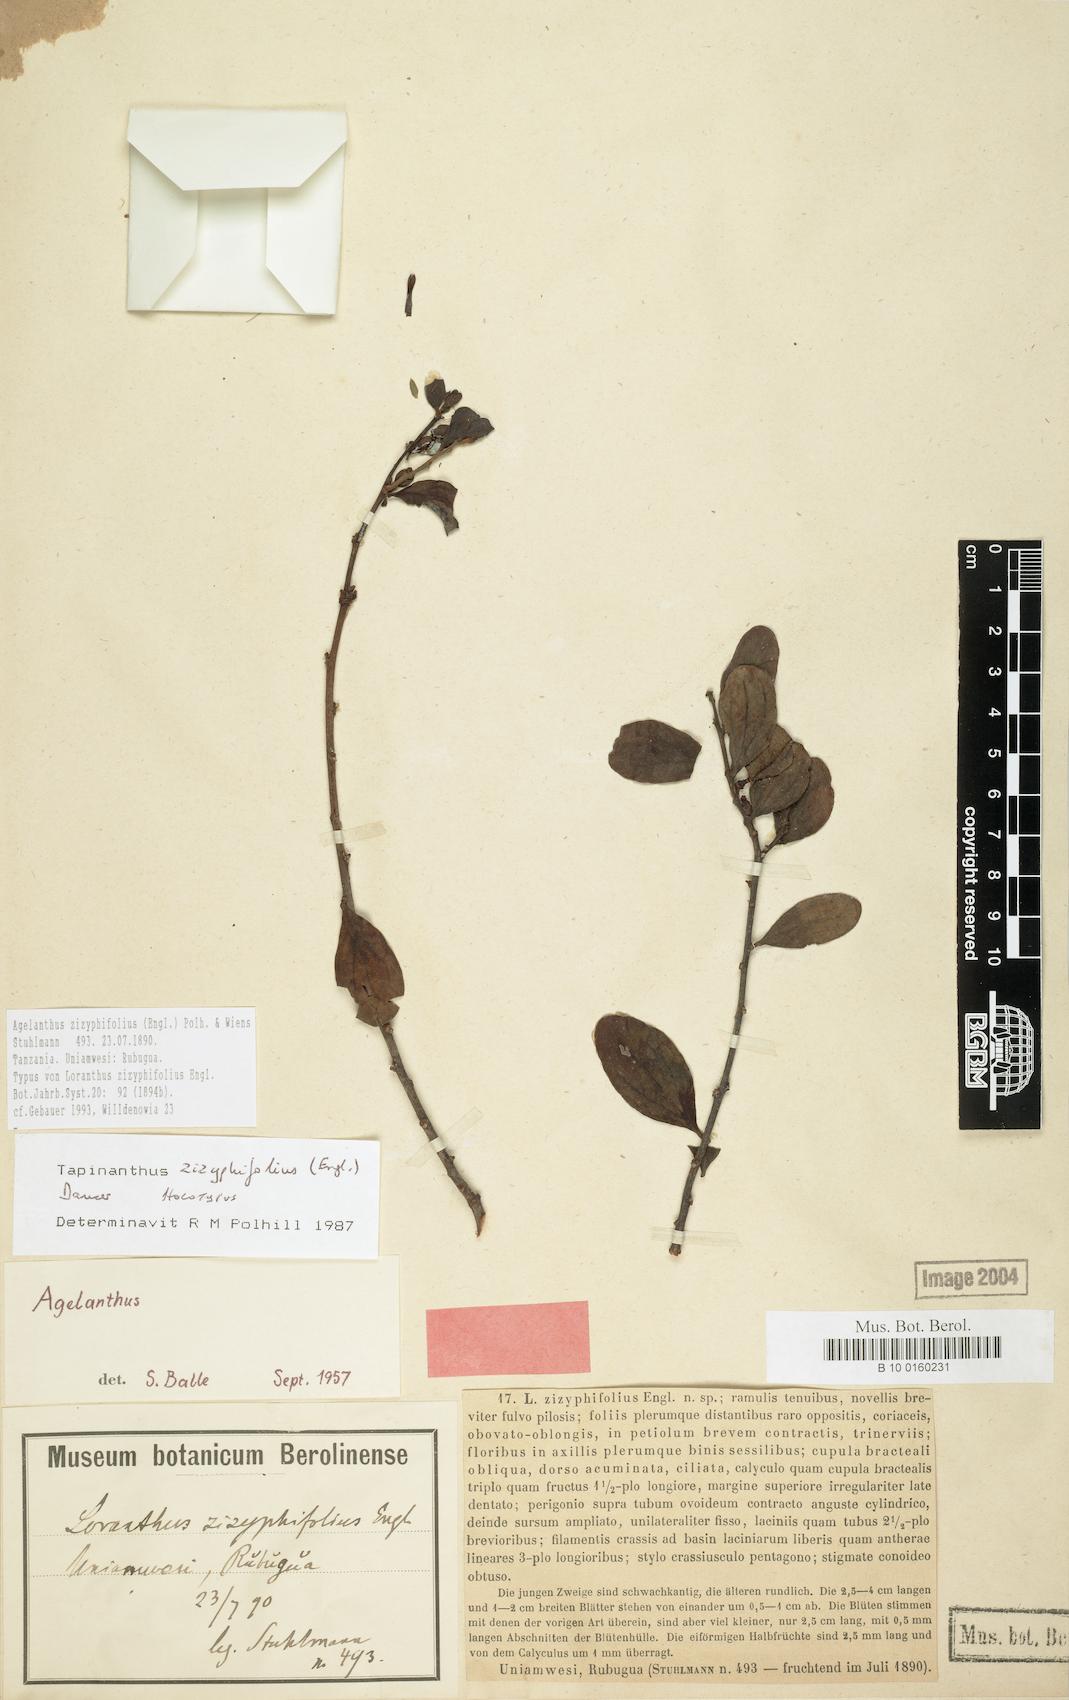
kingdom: Plantae
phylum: Tracheophyta
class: Magnoliopsida
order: Santalales
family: Loranthaceae
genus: Agelanthus
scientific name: Agelanthus zizyphifolius
